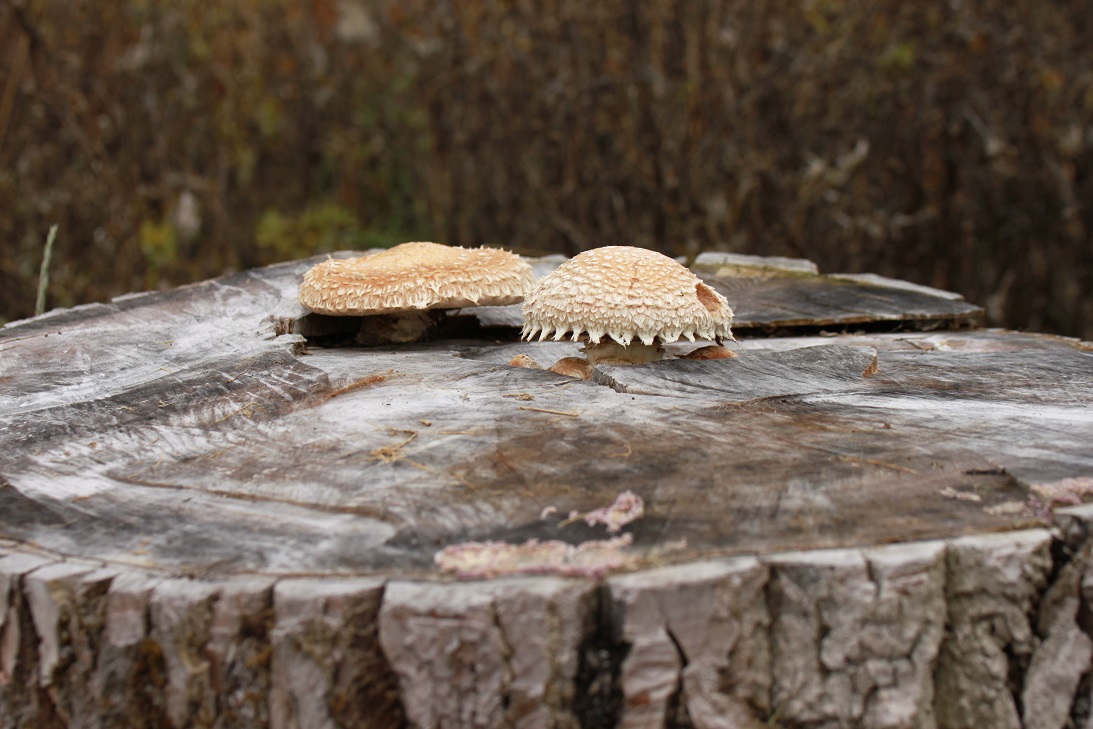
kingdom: Fungi
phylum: Basidiomycota
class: Agaricomycetes
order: Agaricales
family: Strophariaceae
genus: Pholiota
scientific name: Pholiota populnea
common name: poppel-kæmpeskælhat
